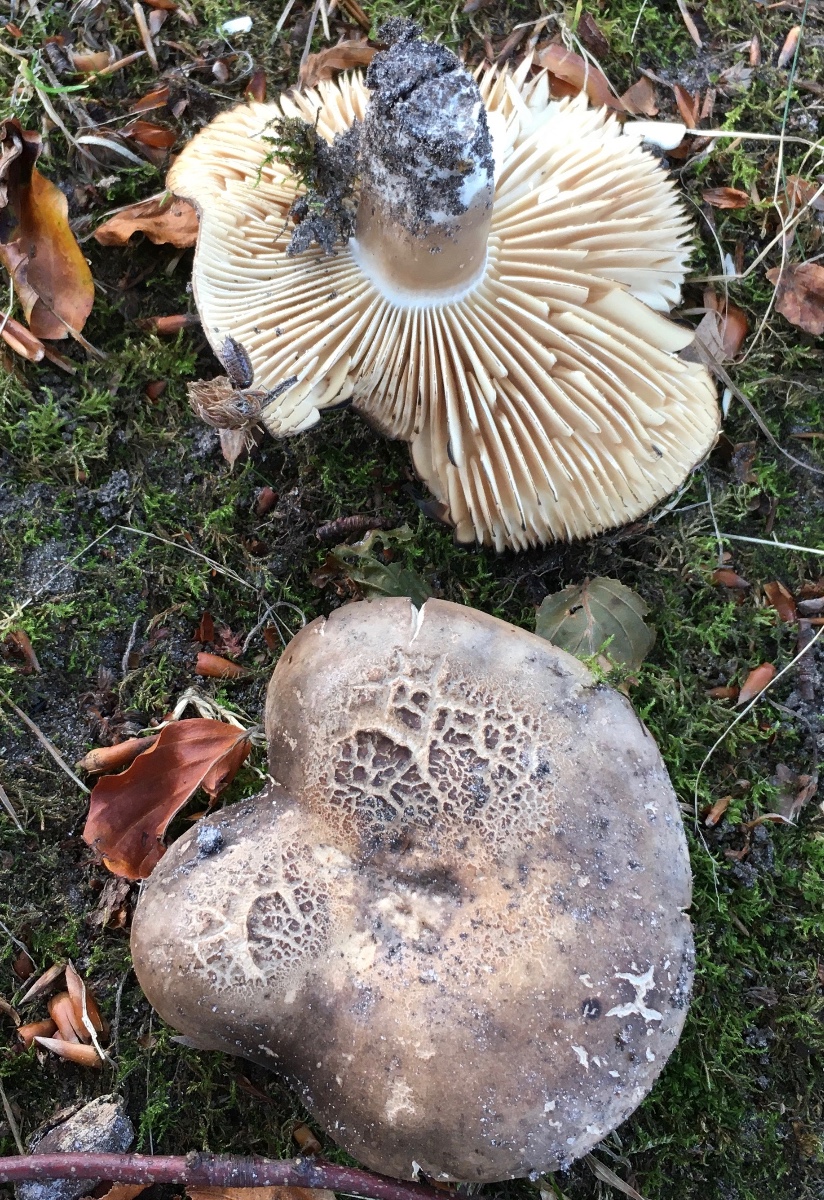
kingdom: Fungi
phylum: Basidiomycota
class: Agaricomycetes
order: Russulales
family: Russulaceae
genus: Russula
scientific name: Russula adusta
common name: sværtende skørhat
